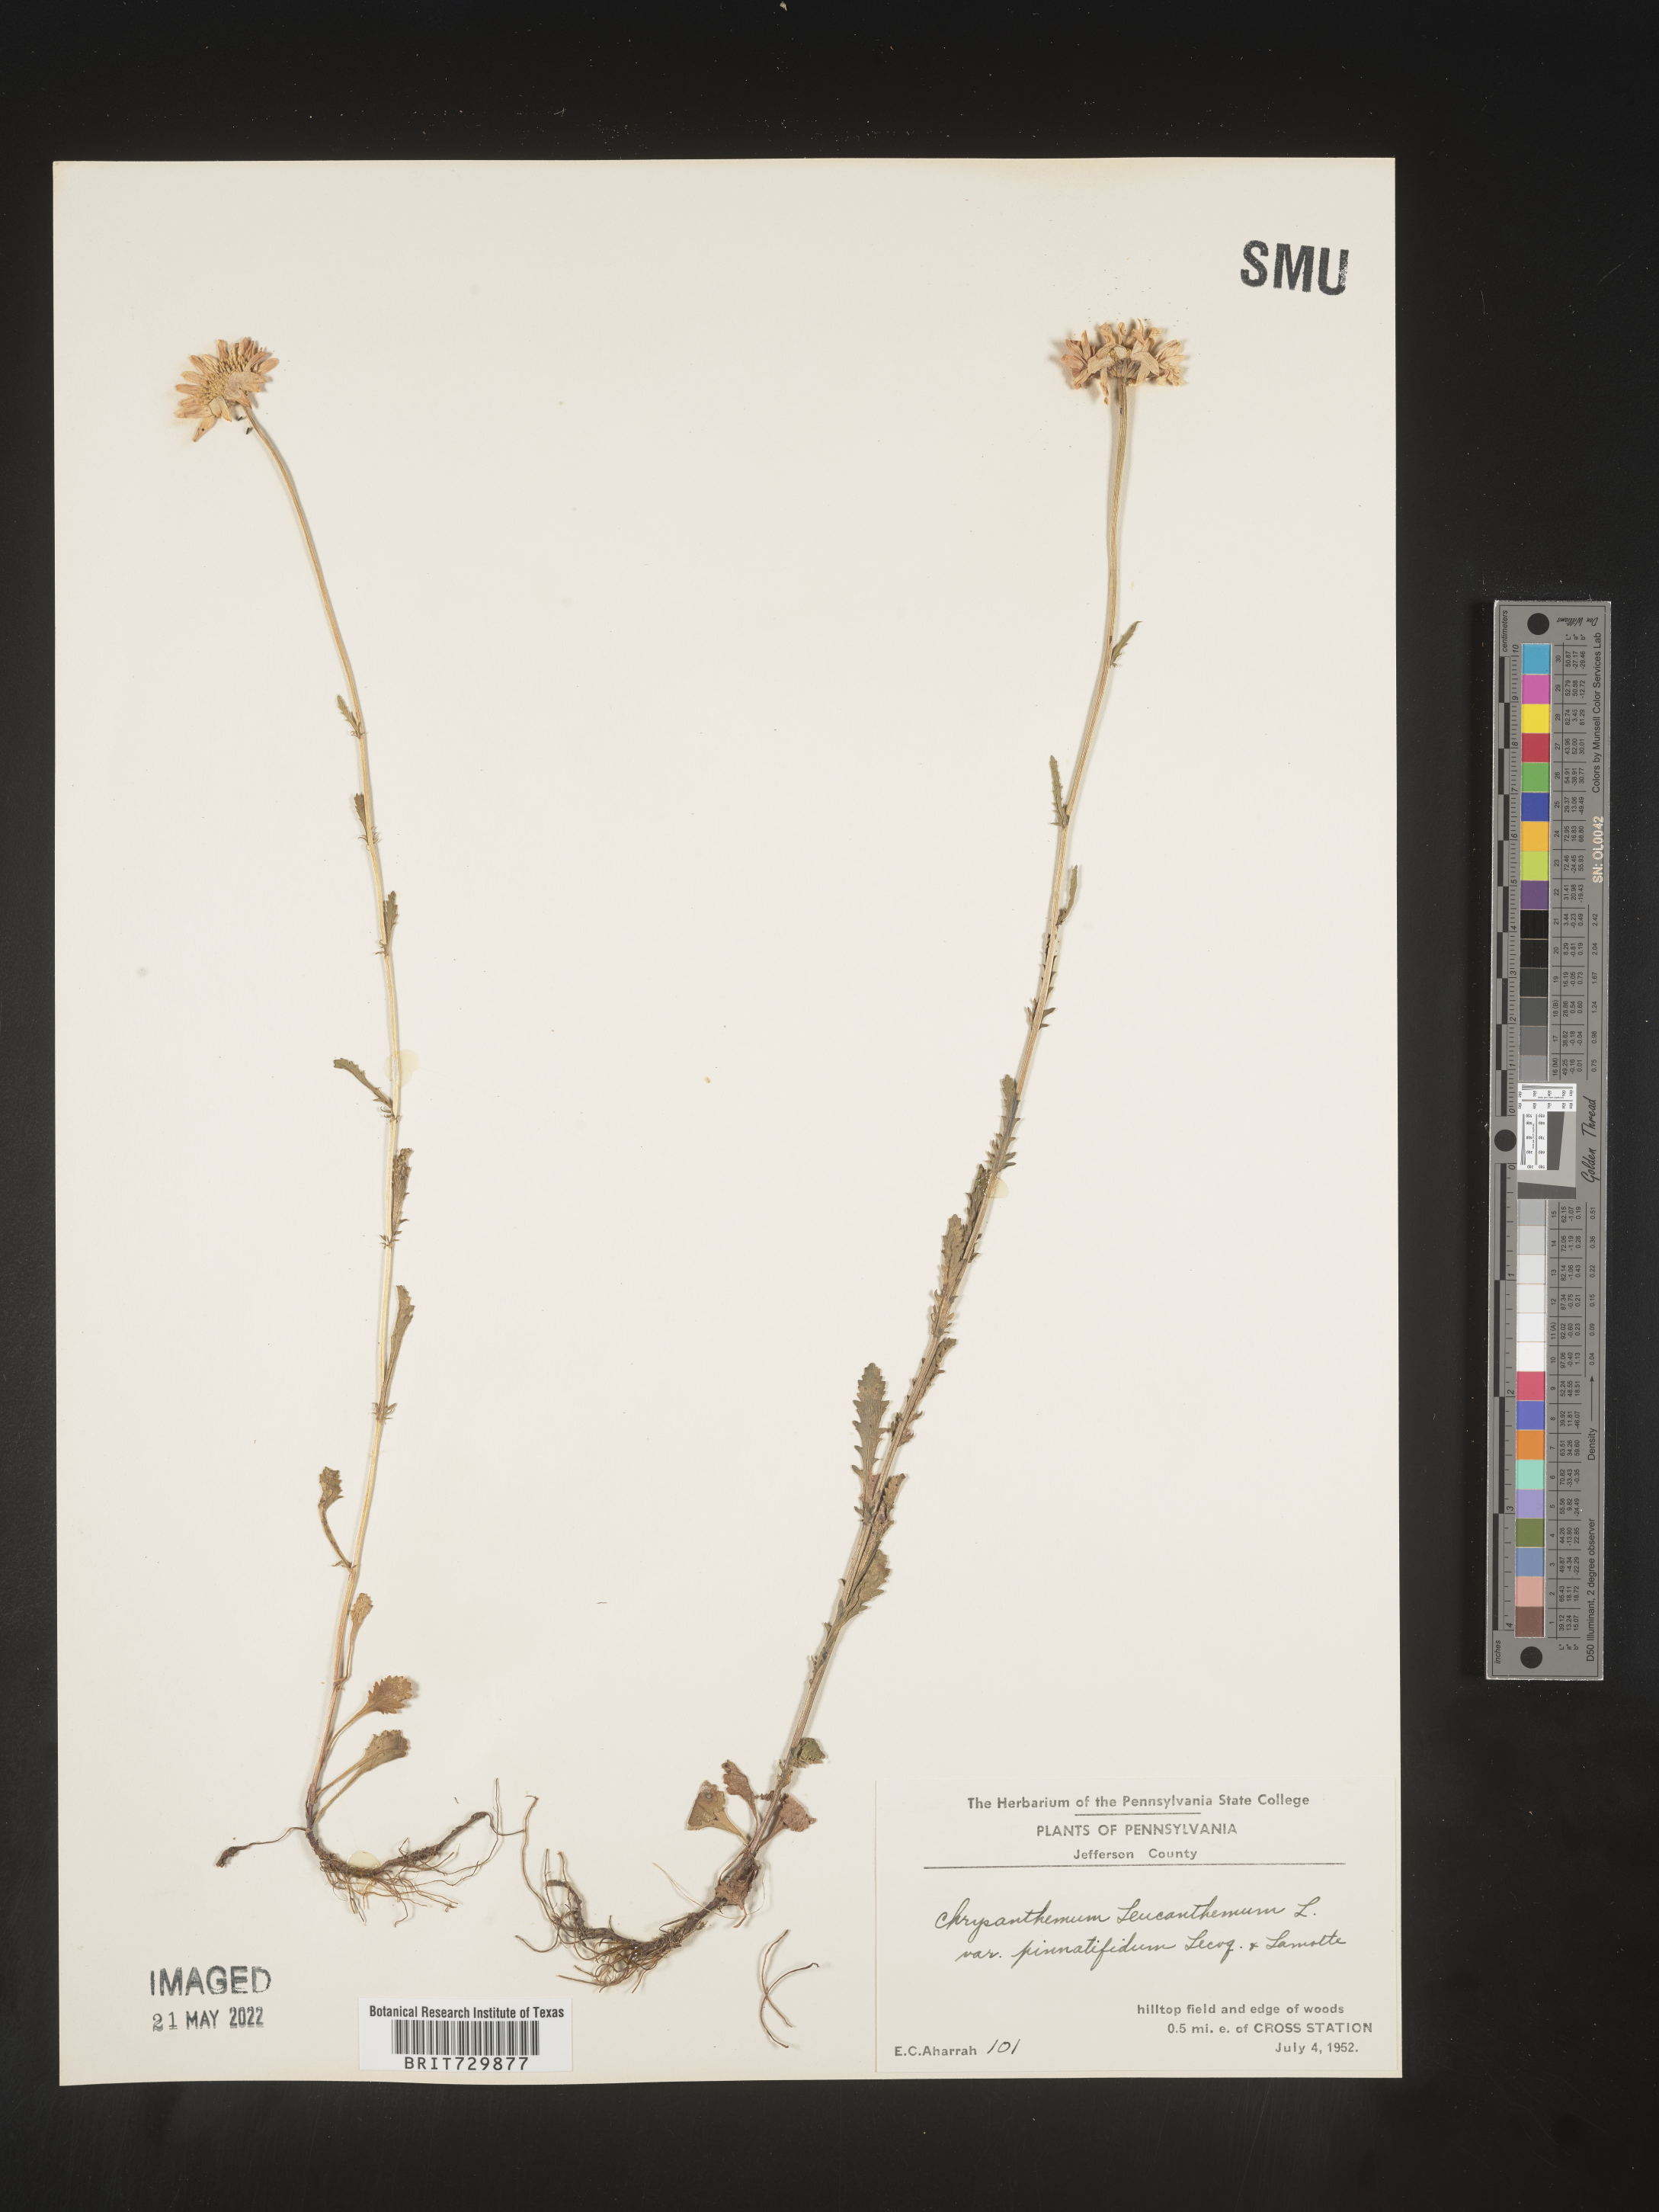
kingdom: Plantae
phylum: Tracheophyta
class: Magnoliopsida
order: Asterales
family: Asteraceae
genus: Leucanthemum
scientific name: Leucanthemum vulgare
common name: Oxeye daisy
